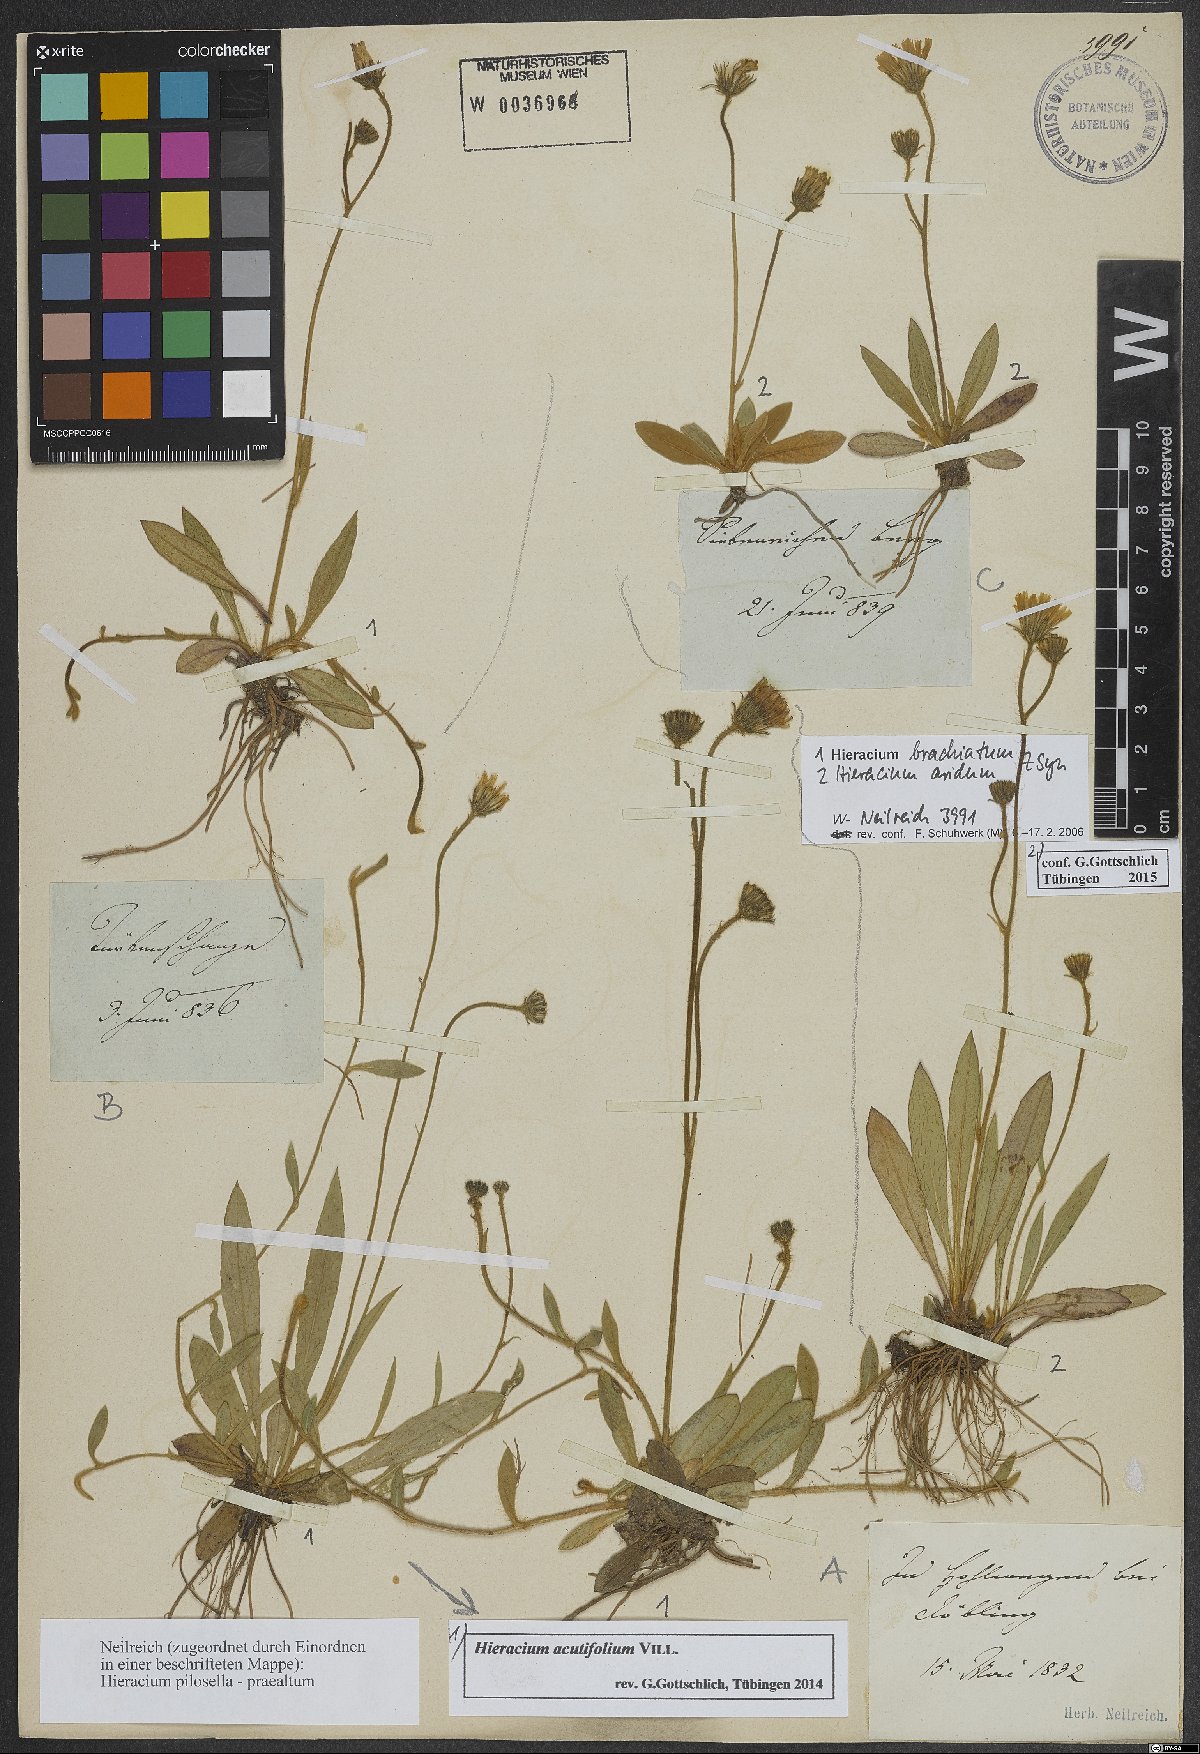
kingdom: Plantae
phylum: Tracheophyta
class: Magnoliopsida
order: Asterales
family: Asteraceae
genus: Pilosella
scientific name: Pilosella acutifolia
